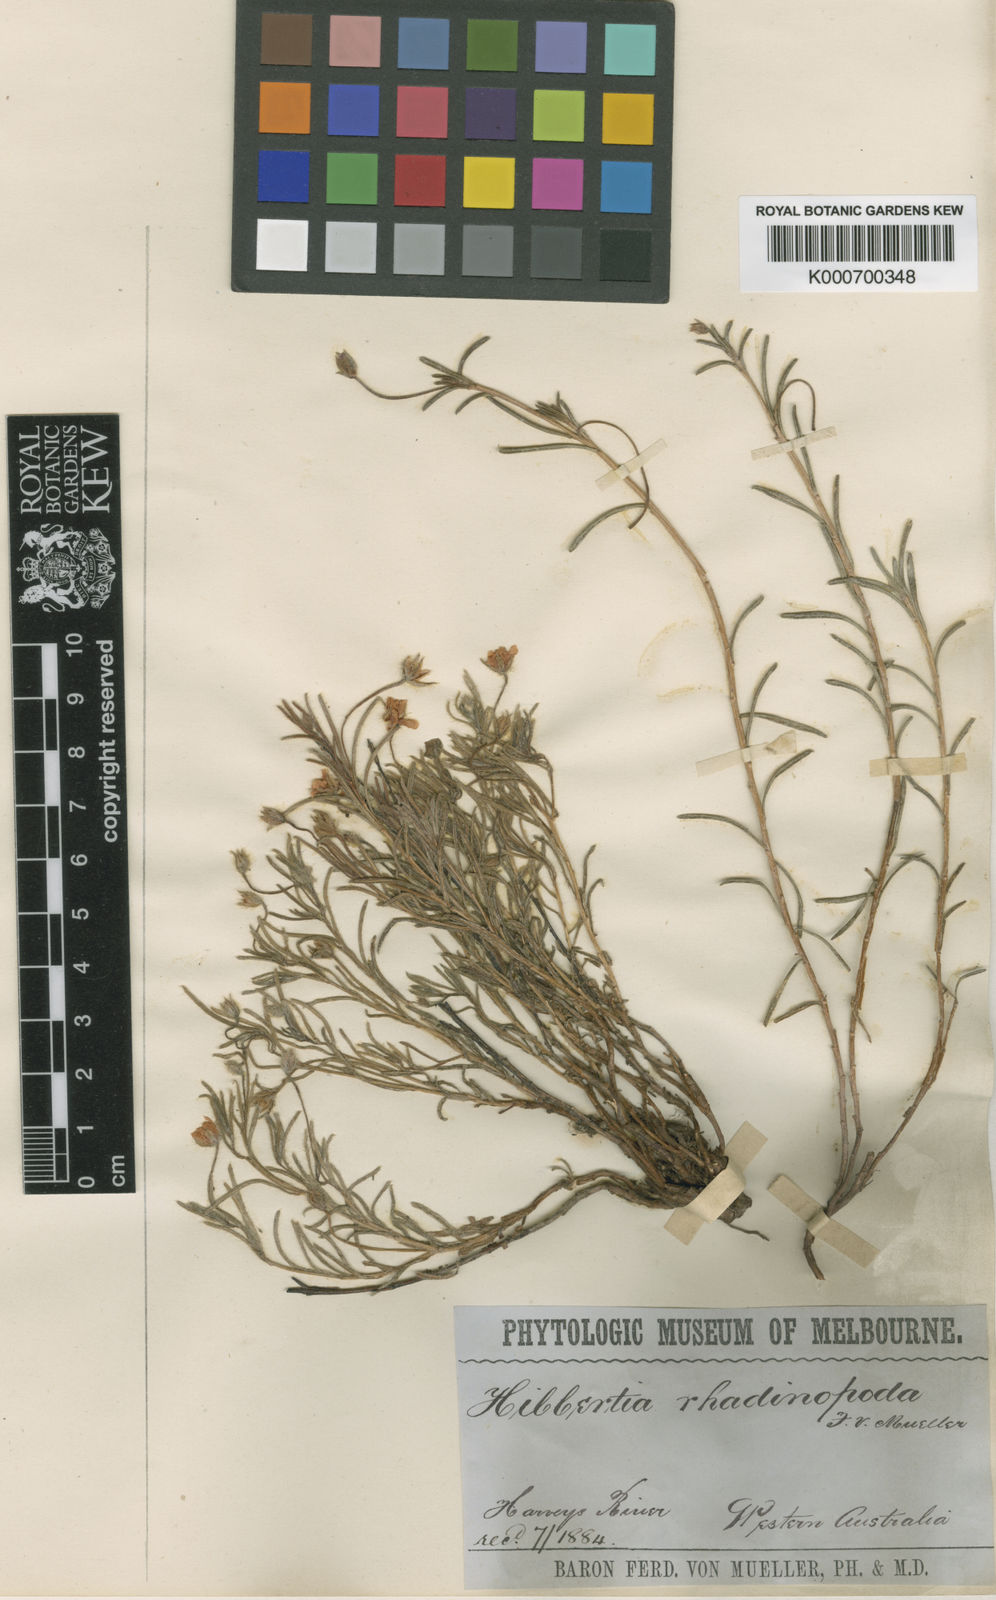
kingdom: Plantae
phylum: Tracheophyta
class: Magnoliopsida
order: Dilleniales
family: Dilleniaceae
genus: Hibbertia
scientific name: Hibbertia rhadinopoda
